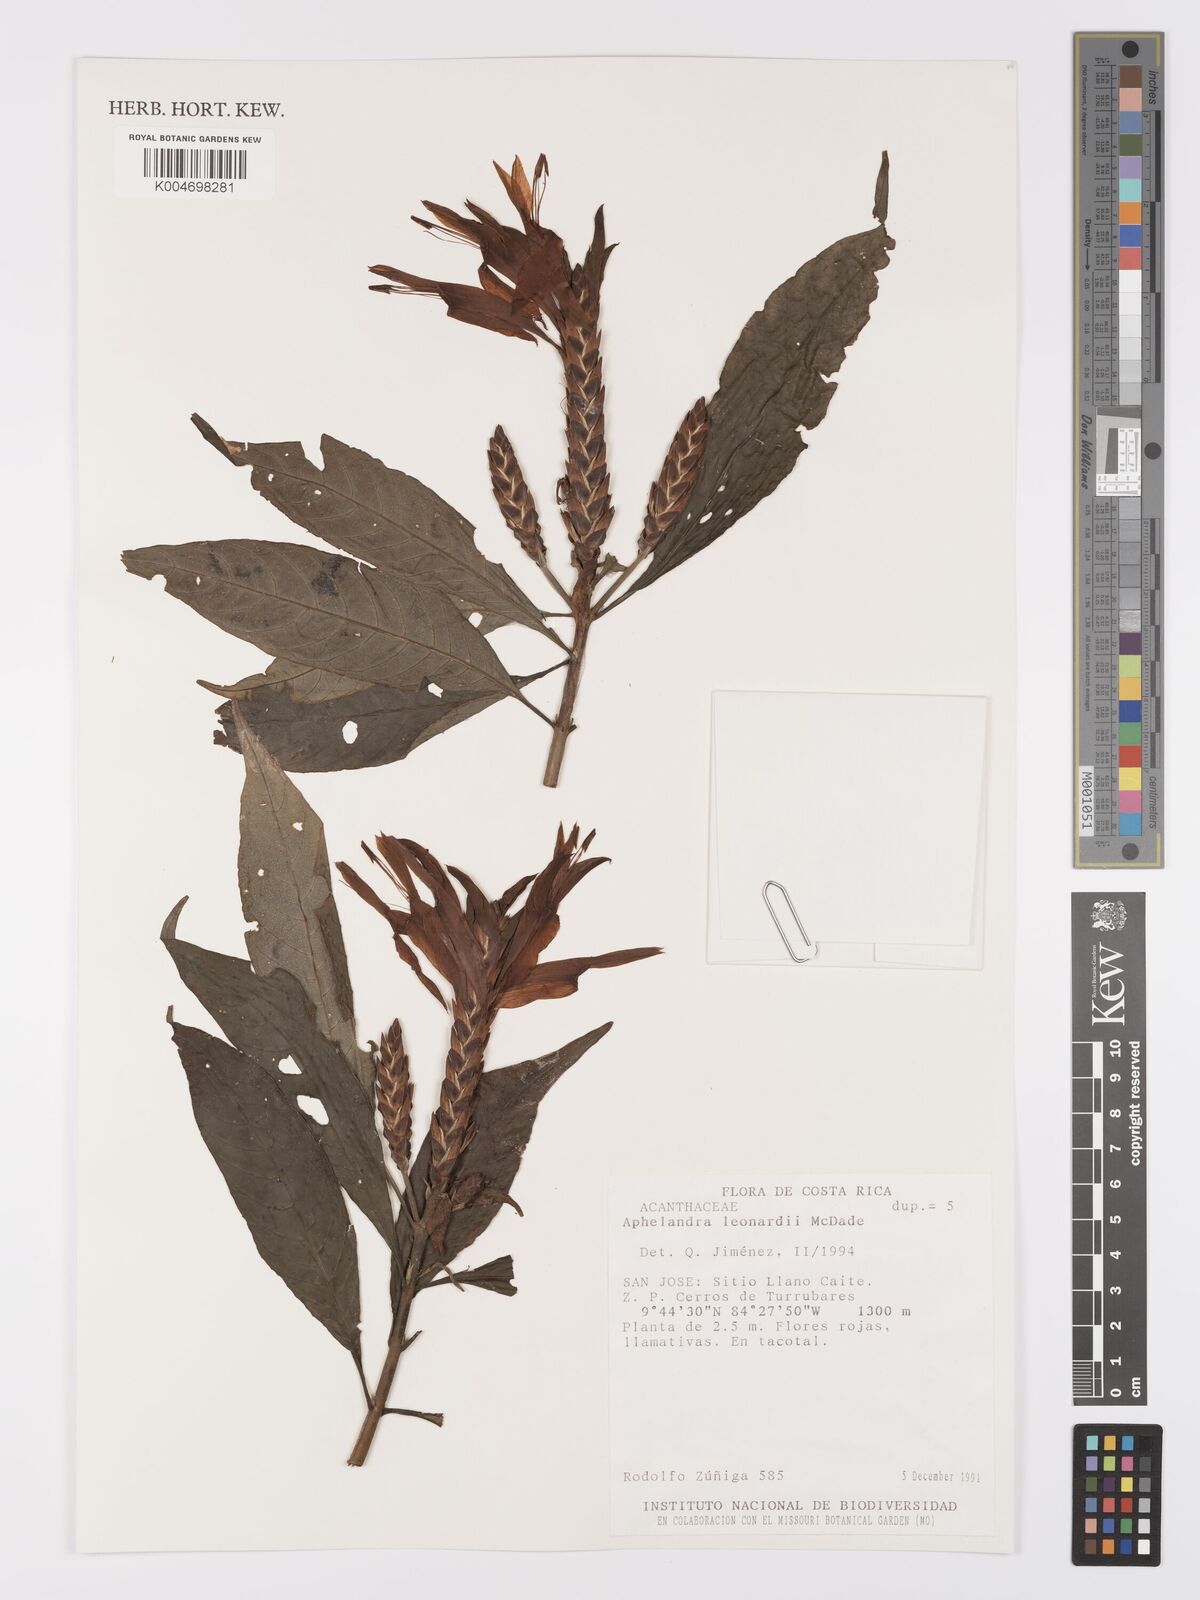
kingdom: Plantae
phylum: Tracheophyta
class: Magnoliopsida
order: Lamiales
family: Acanthaceae
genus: Aphelandra
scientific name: Aphelandra leonardii
